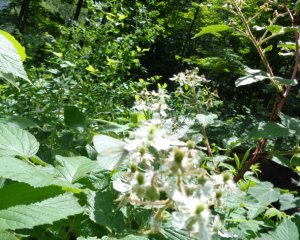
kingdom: Animalia
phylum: Arthropoda
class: Insecta
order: Lepidoptera
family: Pieridae
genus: Pieris
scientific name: Pieris virginiensis
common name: West Virginia White
